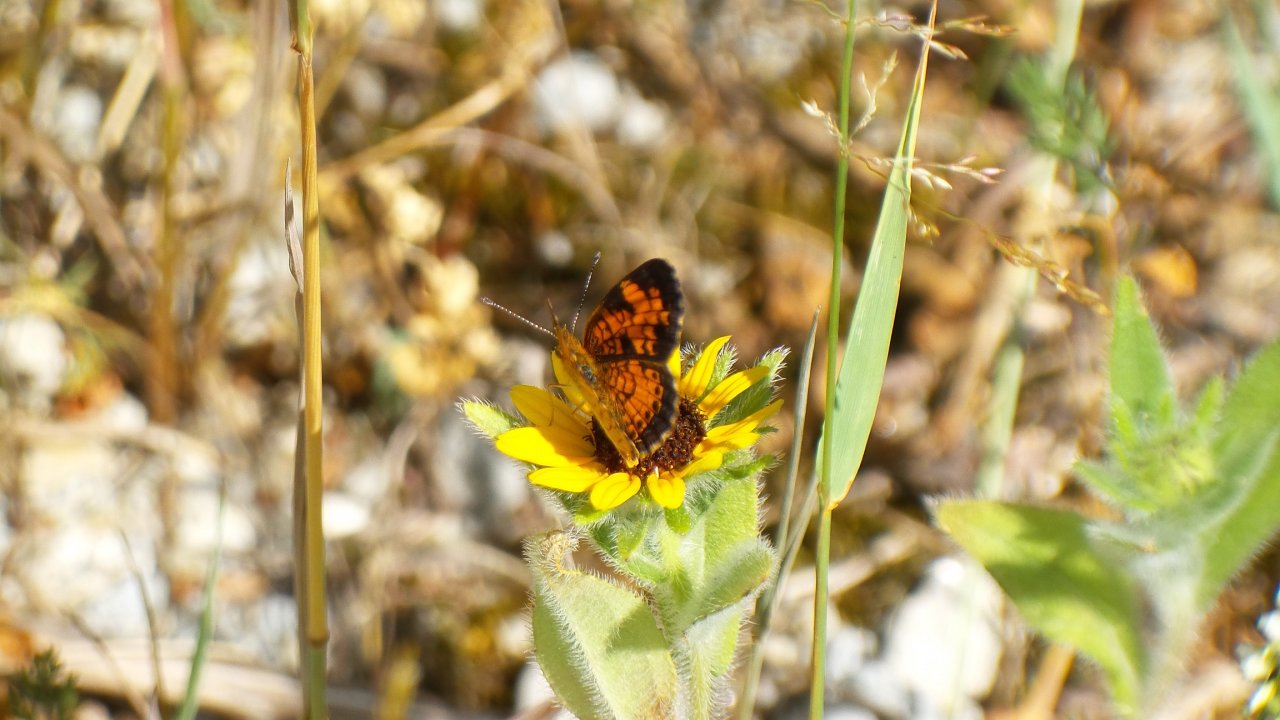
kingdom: Animalia
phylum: Arthropoda
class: Insecta
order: Lepidoptera
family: Nymphalidae
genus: Phyciodes
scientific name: Phyciodes tharos
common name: Pearl Crescent
